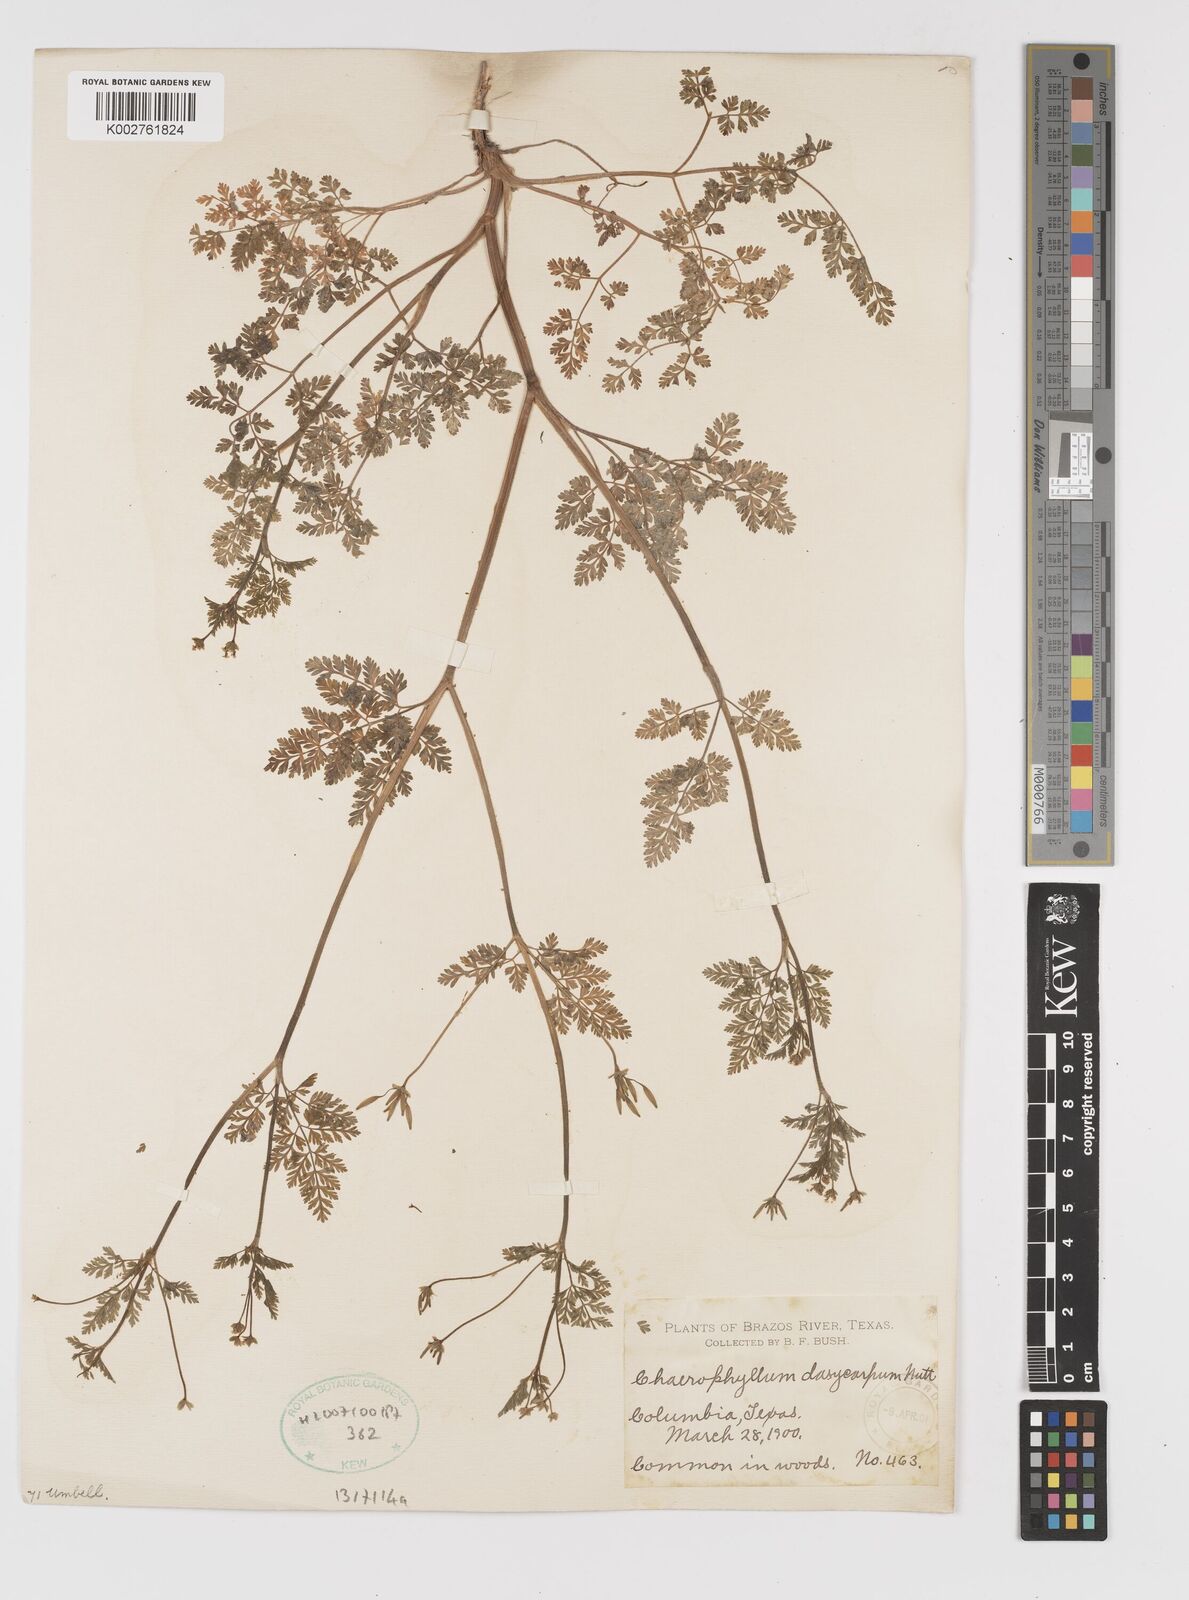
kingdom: Plantae
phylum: Tracheophyta
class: Magnoliopsida
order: Apiales
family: Apiaceae
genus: Chaerophyllum
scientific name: Chaerophyllum dasycarpum
